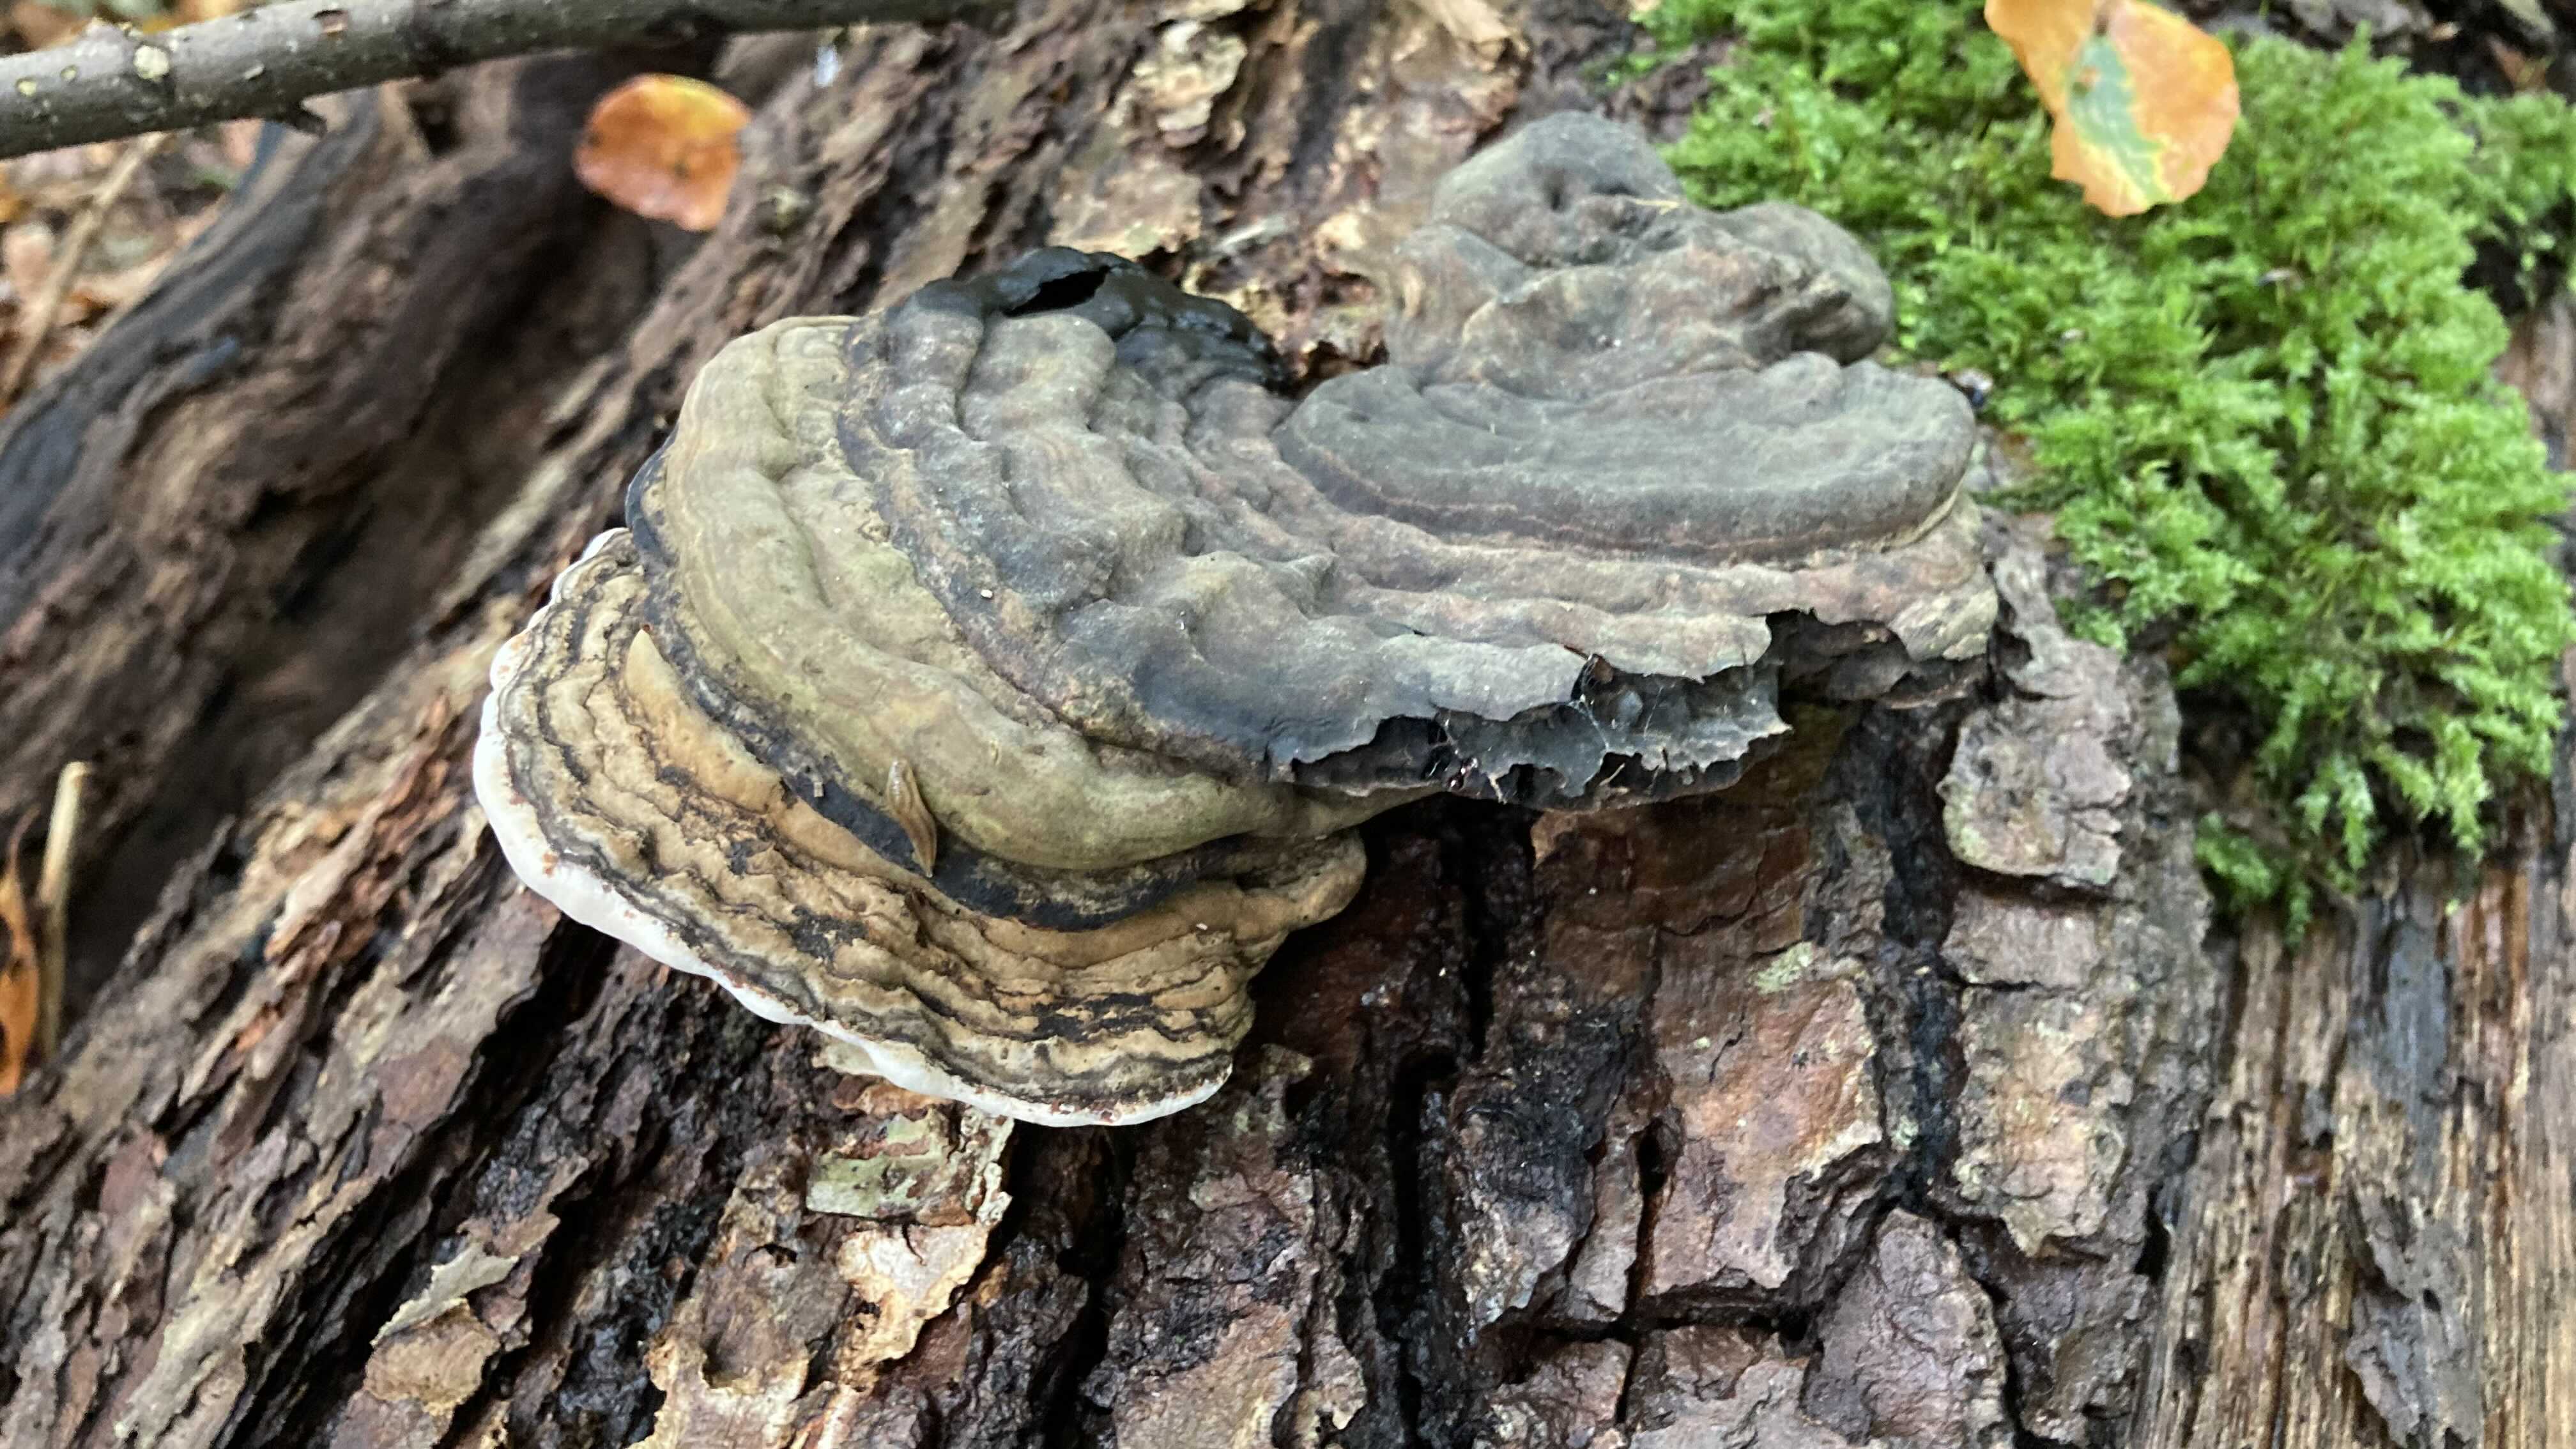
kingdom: Fungi
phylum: Basidiomycota
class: Agaricomycetes
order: Polyporales
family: Polyporaceae
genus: Ganoderma
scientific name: Ganoderma applanatum
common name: flad lakporesvamp
